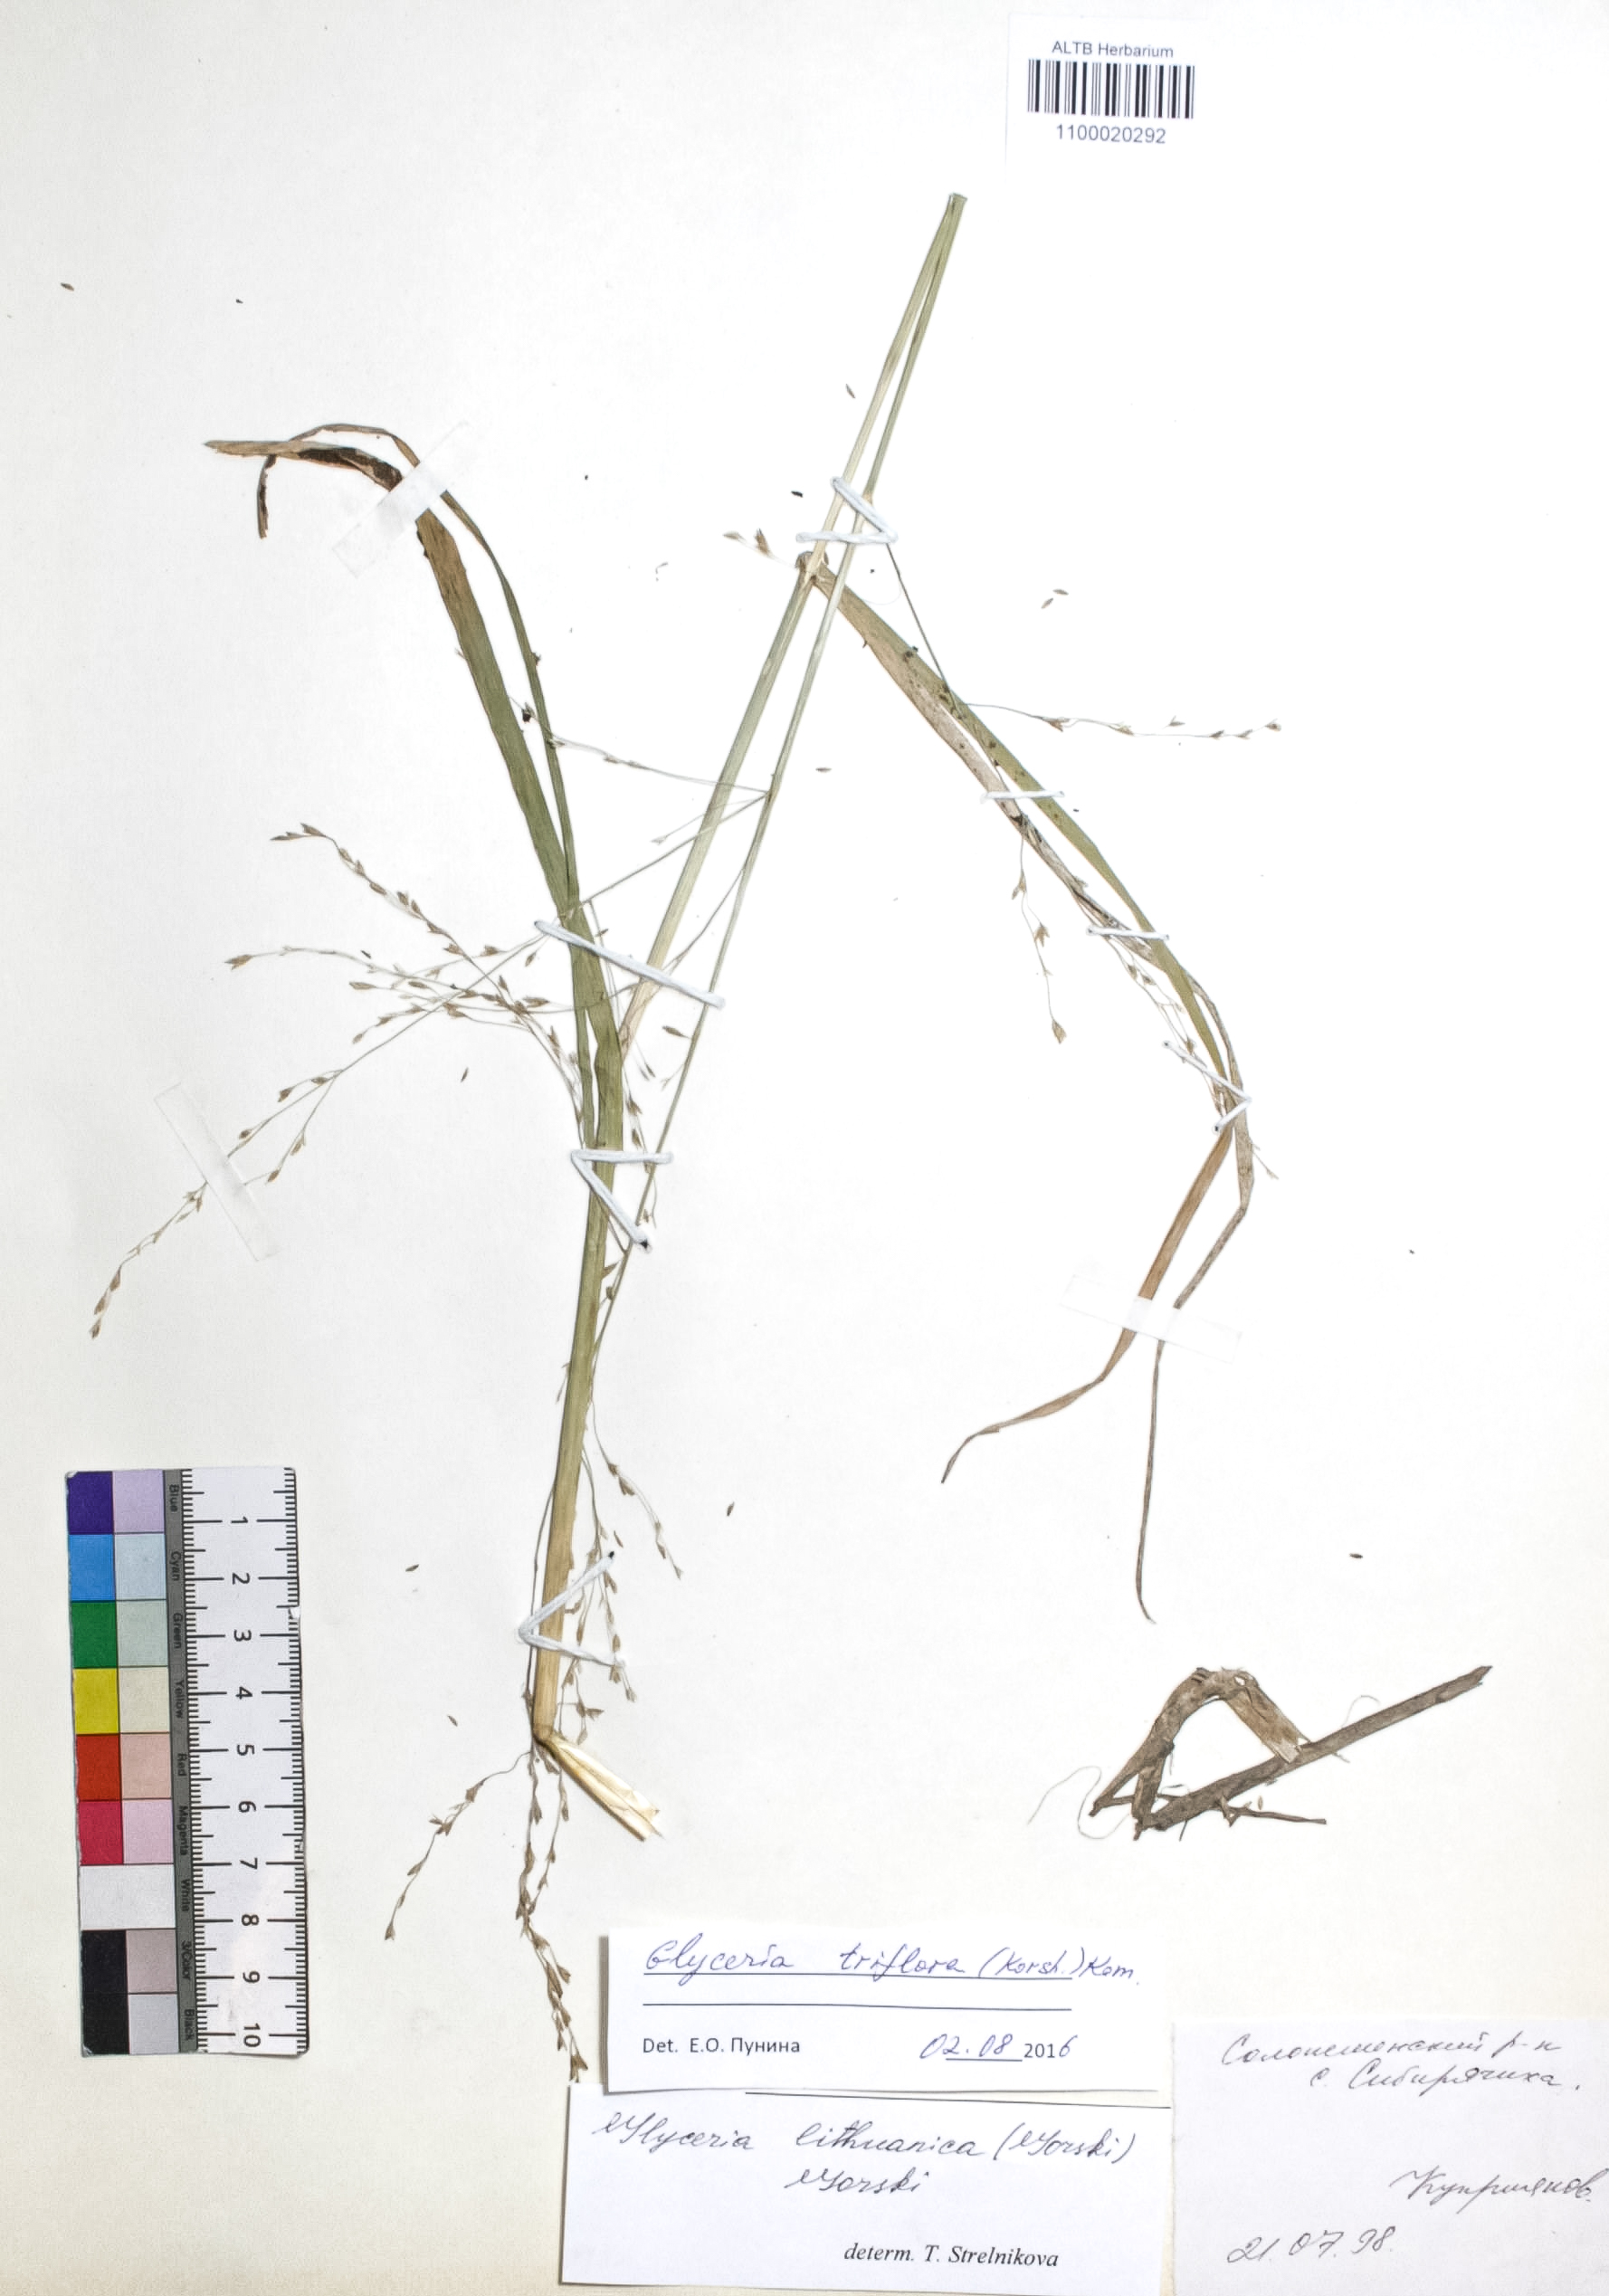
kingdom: Plantae
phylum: Tracheophyta
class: Liliopsida
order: Poales
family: Poaceae
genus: Glyceria
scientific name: Glyceria lithuanica
